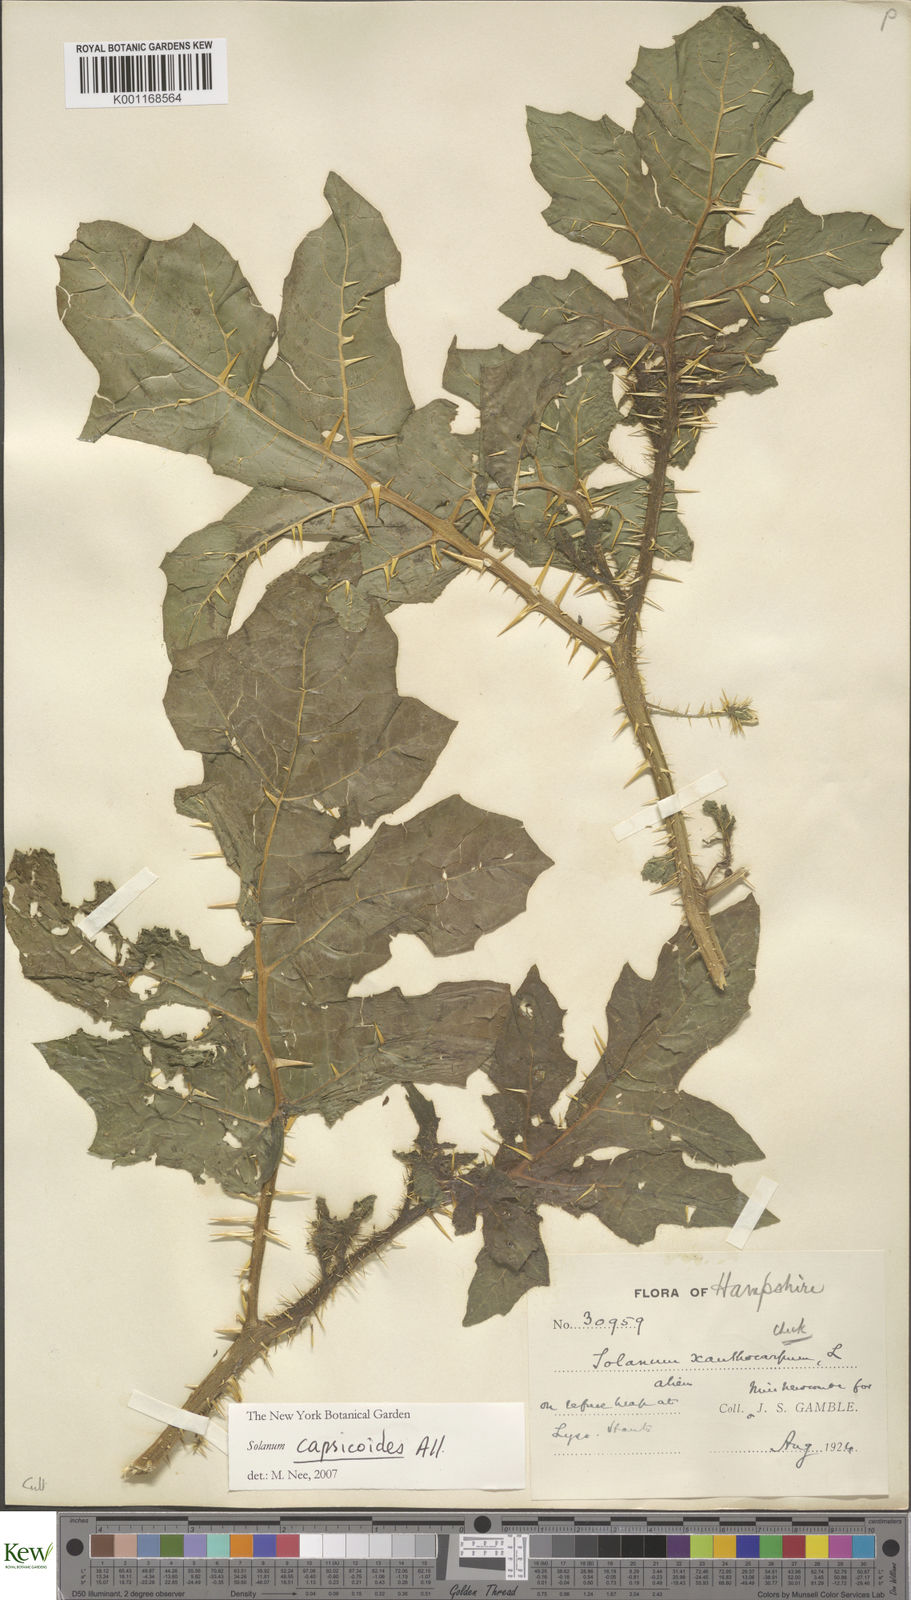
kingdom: Plantae
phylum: Tracheophyta
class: Magnoliopsida
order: Solanales
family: Solanaceae
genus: Solanum
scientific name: Solanum capsicoides
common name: Cockroach berry
